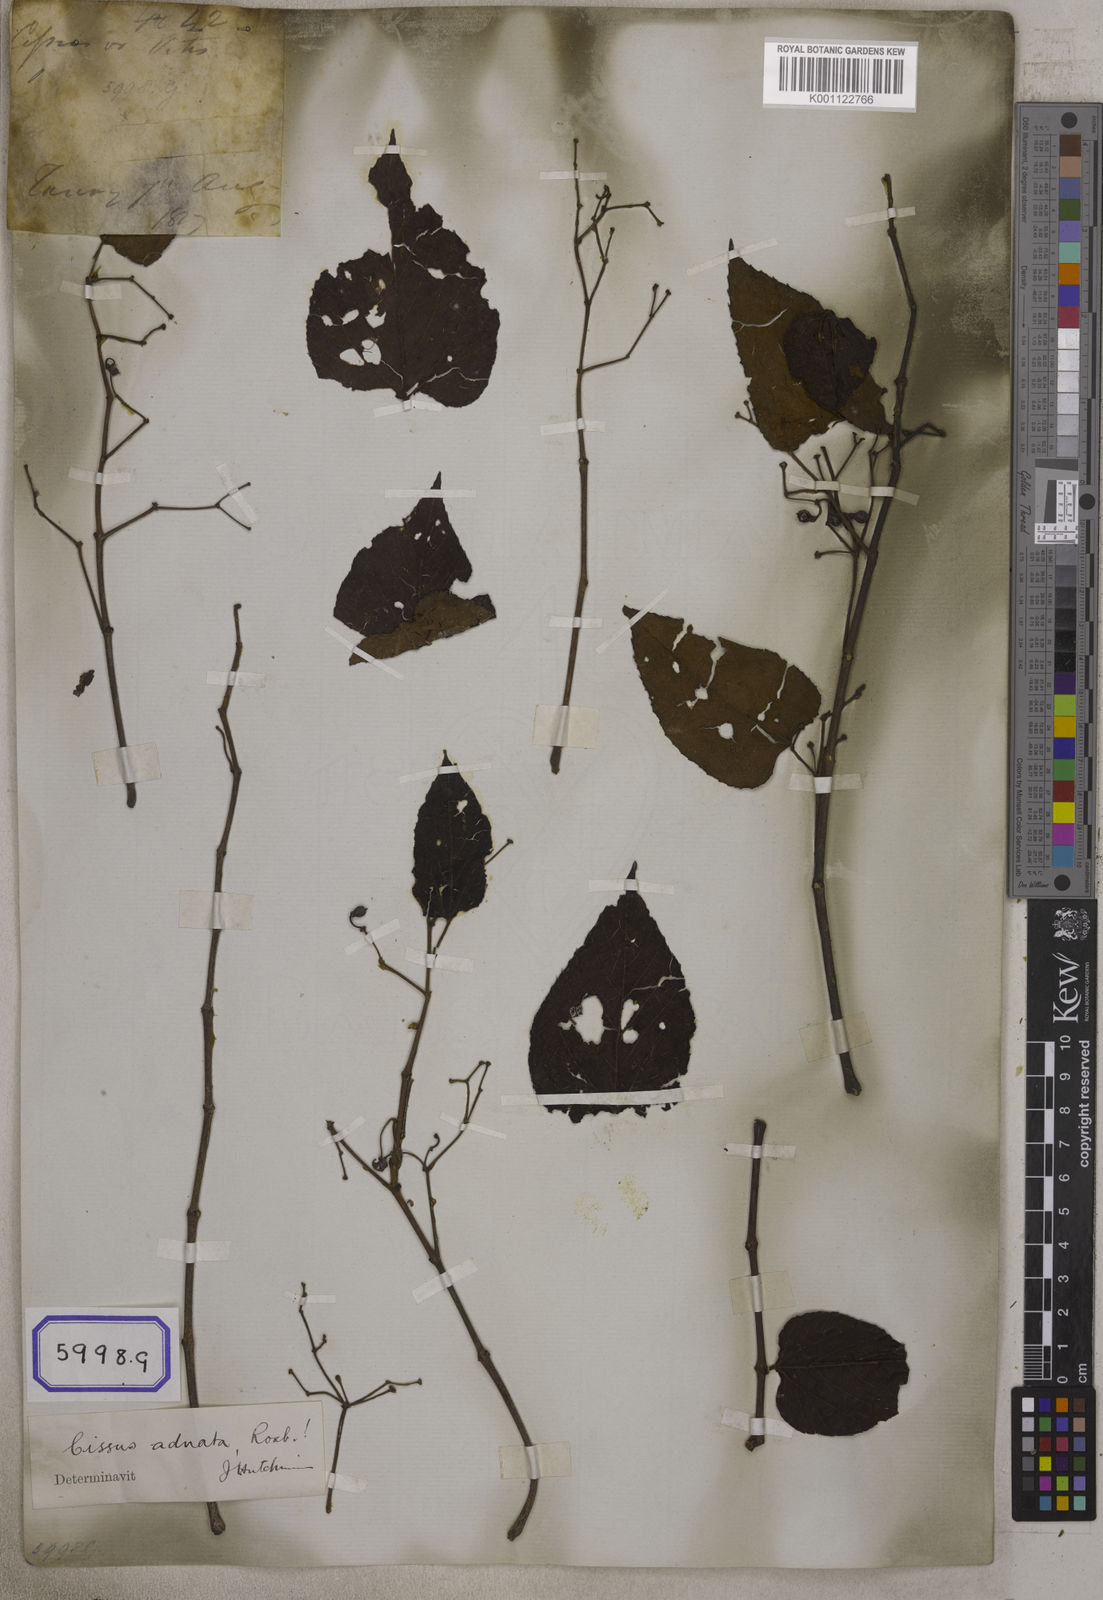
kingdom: Plantae
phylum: Tracheophyta
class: Magnoliopsida
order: Vitales
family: Vitaceae
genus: Cissus
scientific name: Cissus adnata
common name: Heart-leaf-grape
